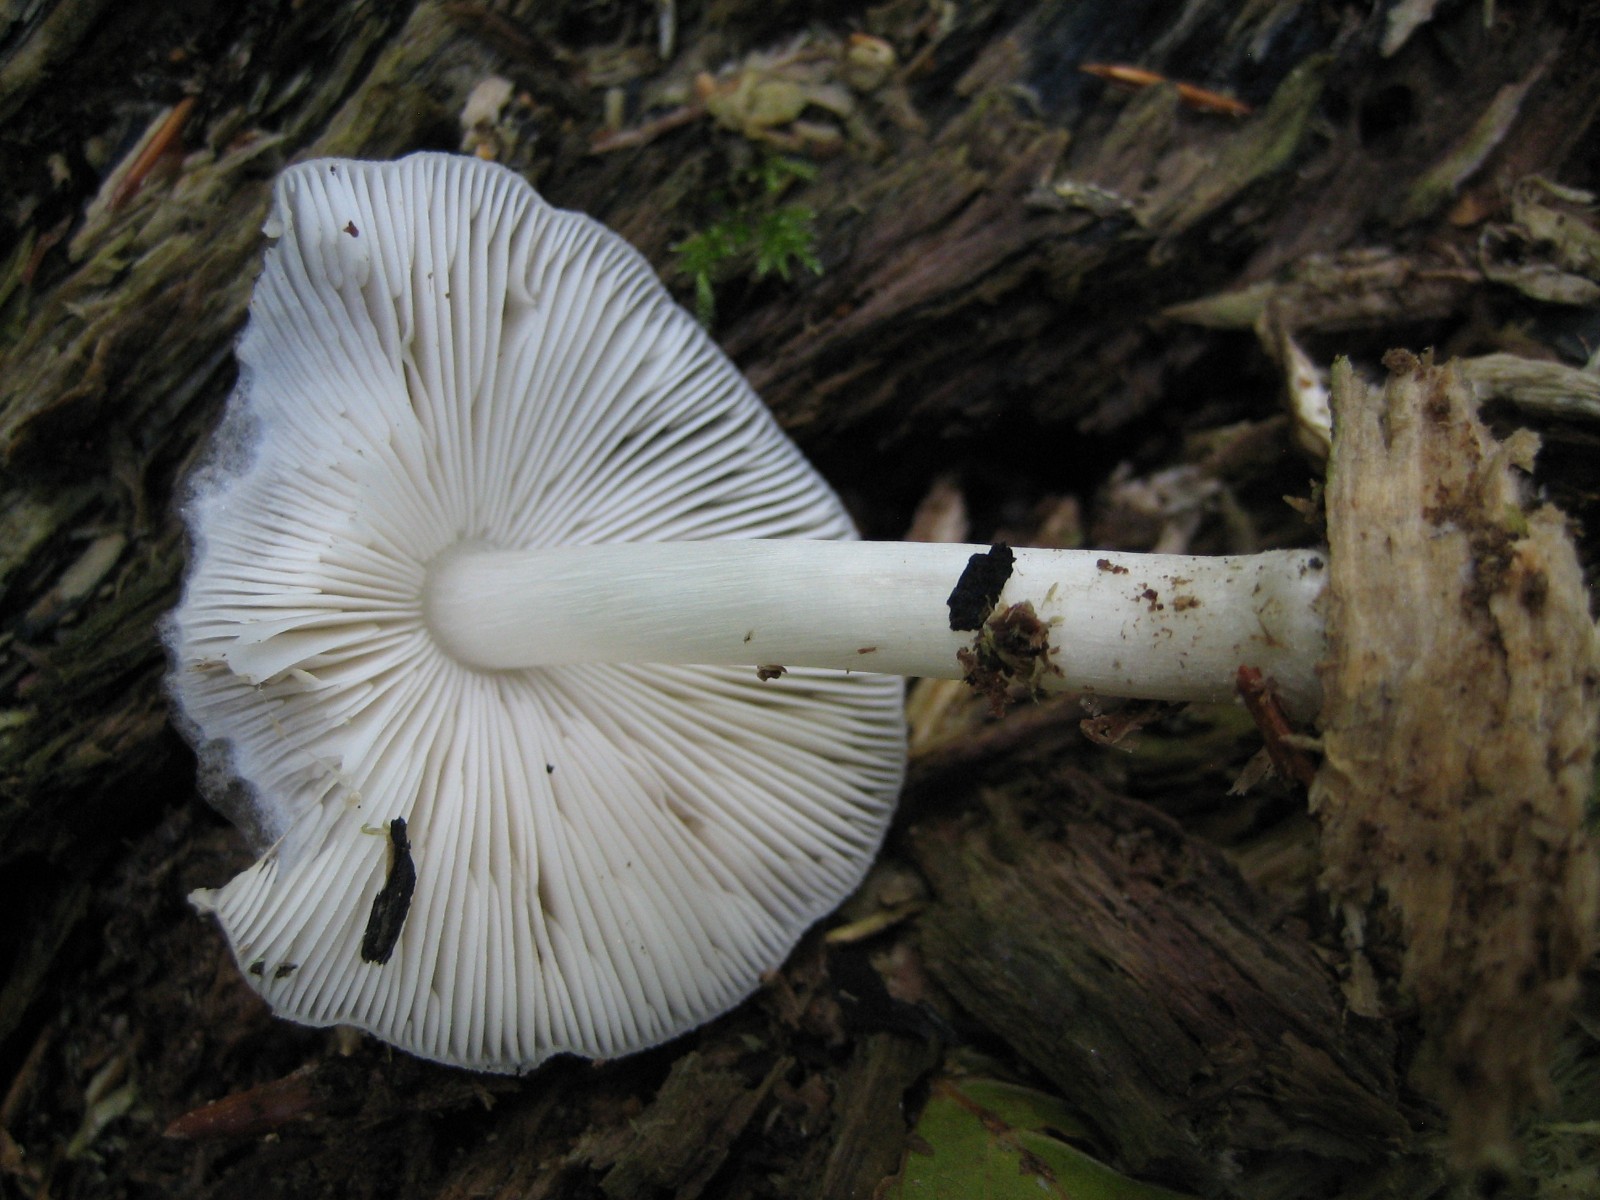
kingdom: Fungi
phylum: Basidiomycota
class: Agaricomycetes
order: Agaricales
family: Pluteaceae
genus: Pluteus
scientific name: Pluteus salicinus
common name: stiv skærmhat
